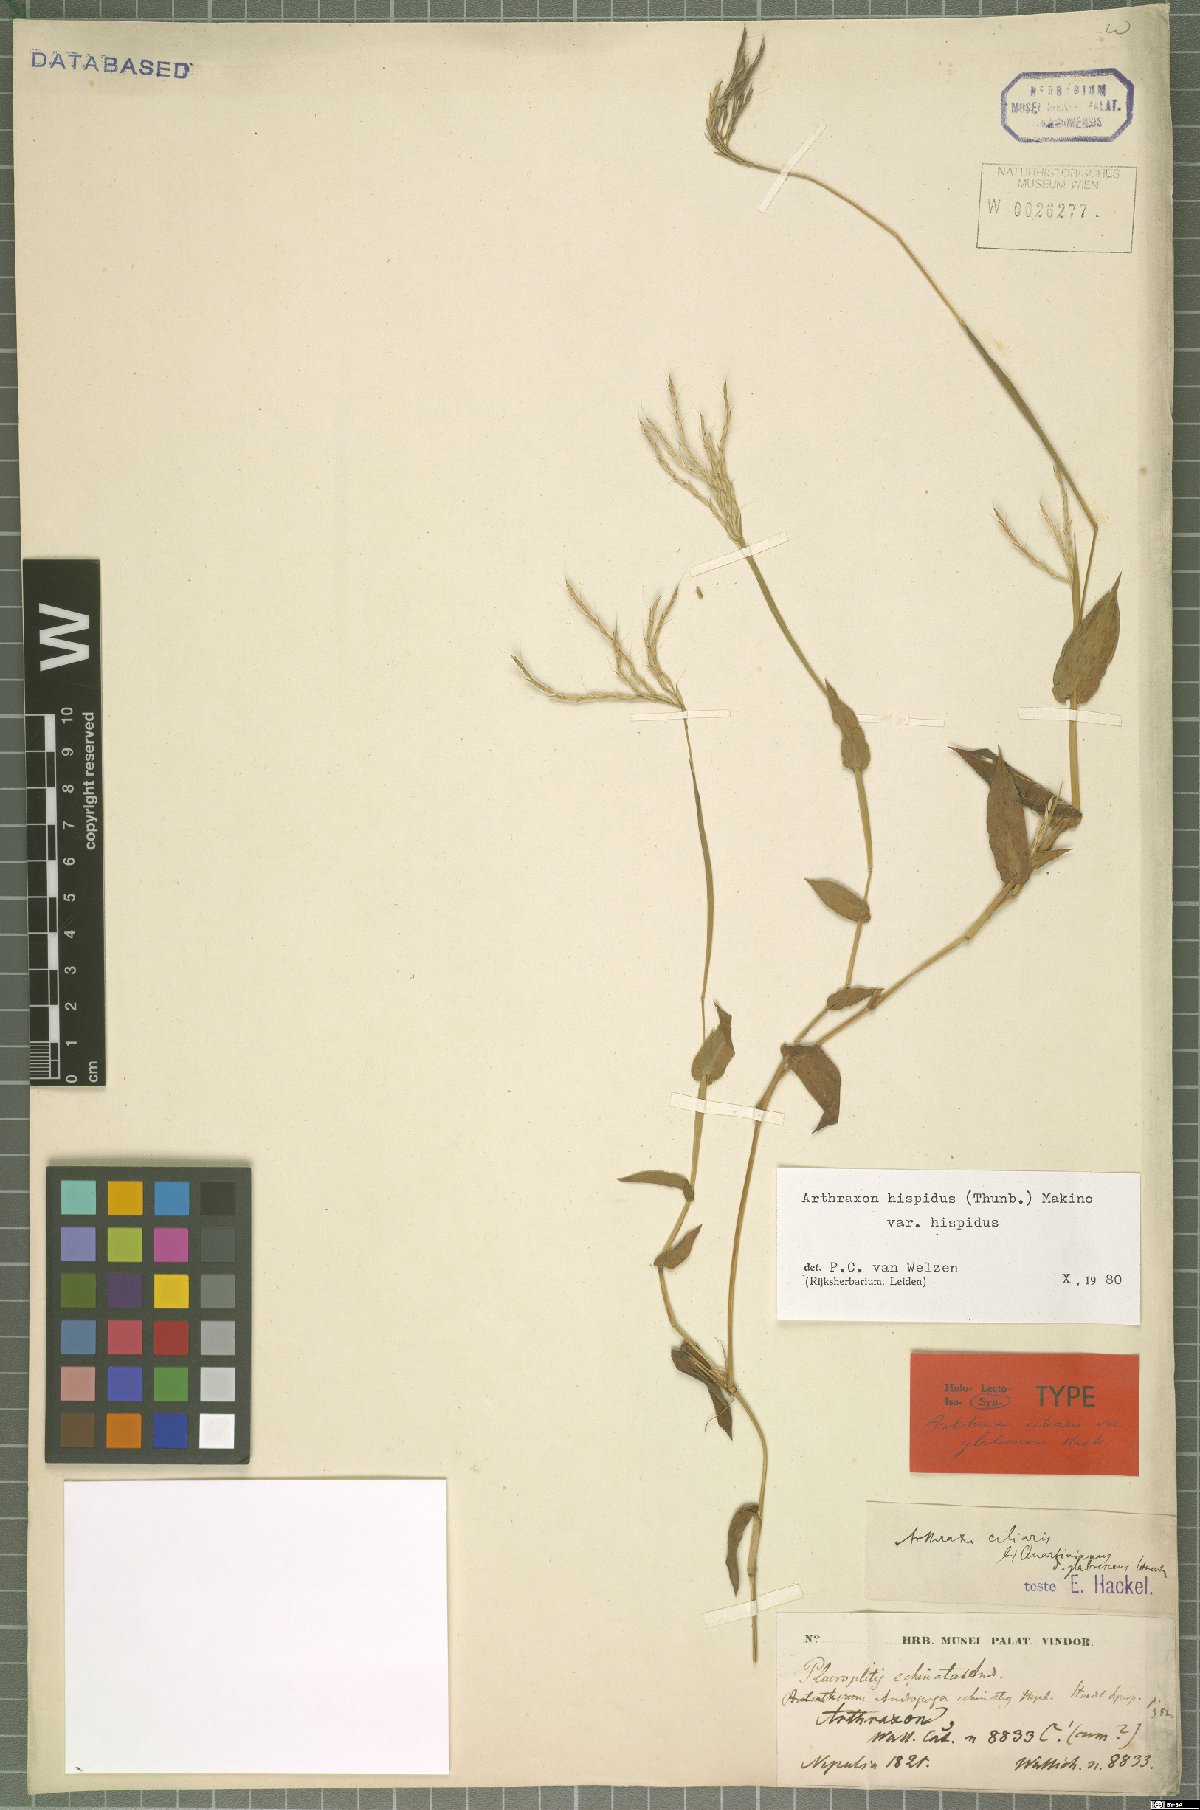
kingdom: Plantae
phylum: Tracheophyta
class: Liliopsida
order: Poales
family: Poaceae
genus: Arthraxon
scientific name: Arthraxon hispidus
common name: Small carpgrass
